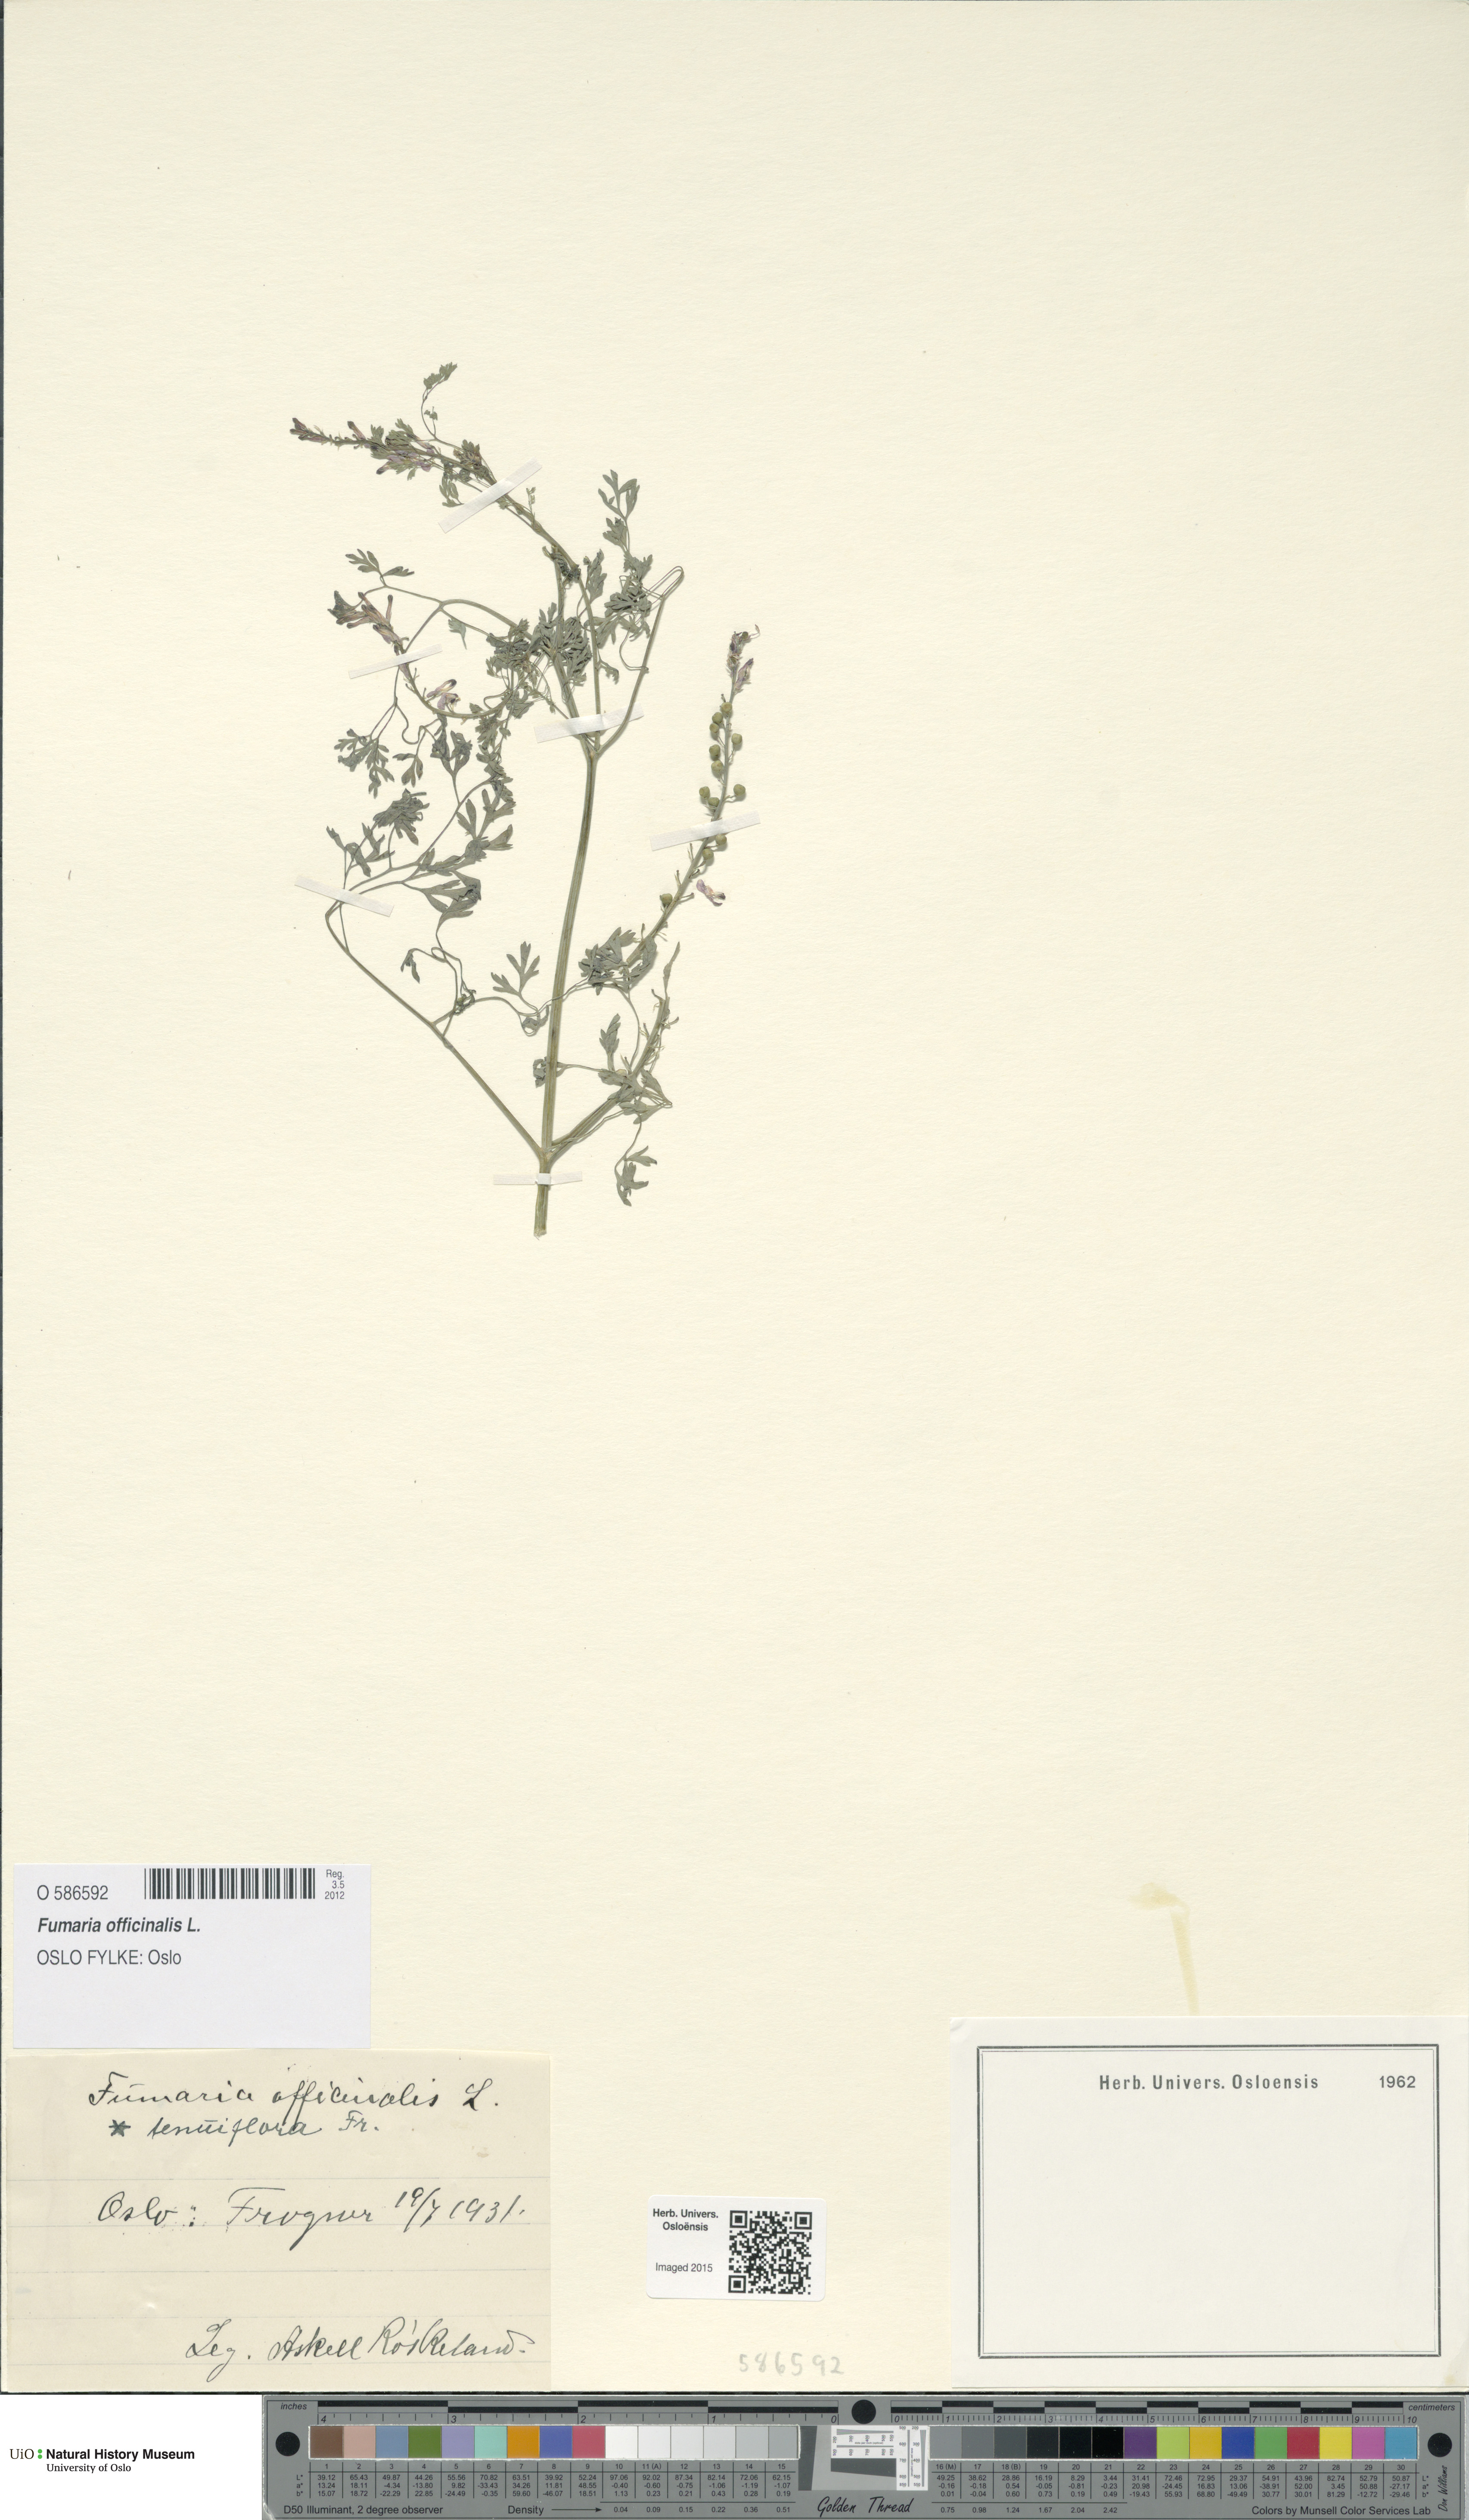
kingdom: Plantae
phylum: Tracheophyta
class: Magnoliopsida
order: Ranunculales
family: Papaveraceae
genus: Fumaria
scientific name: Fumaria officinalis
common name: Common fumitory
